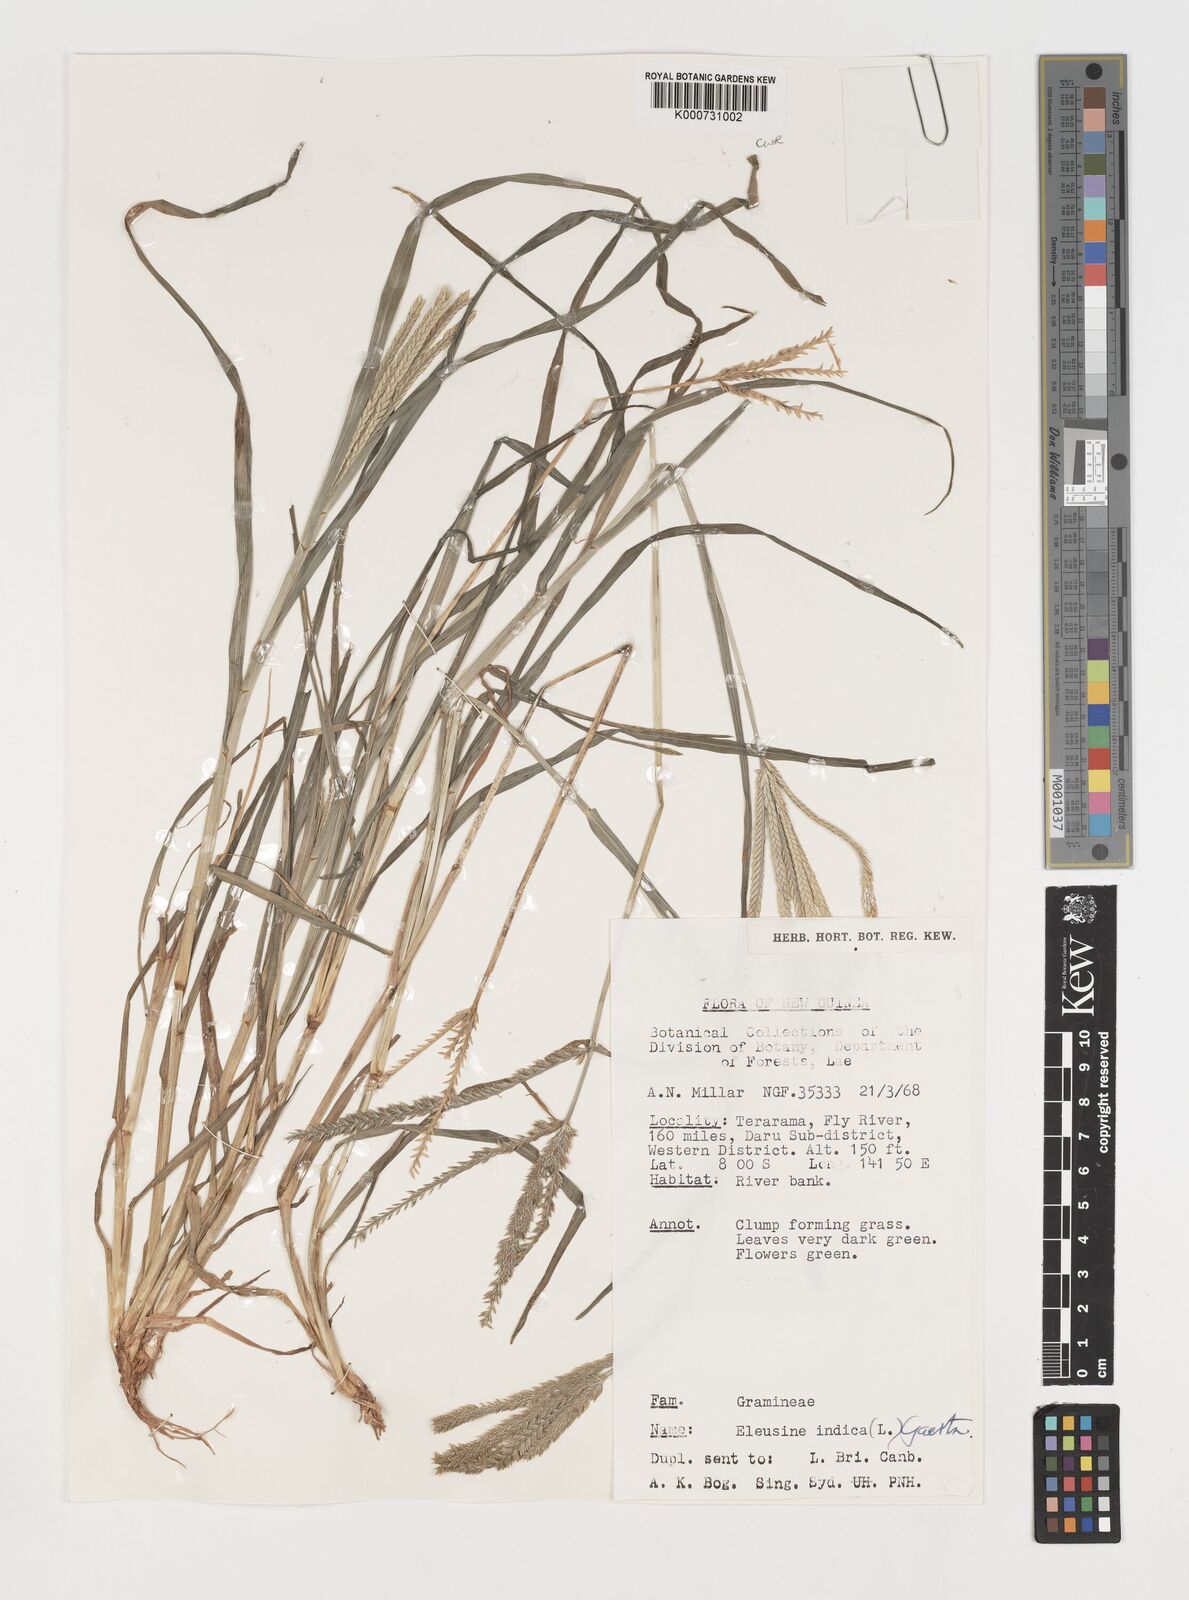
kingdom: Plantae
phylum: Tracheophyta
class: Liliopsida
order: Poales
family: Poaceae
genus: Eleusine
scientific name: Eleusine indica
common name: Yard-grass
